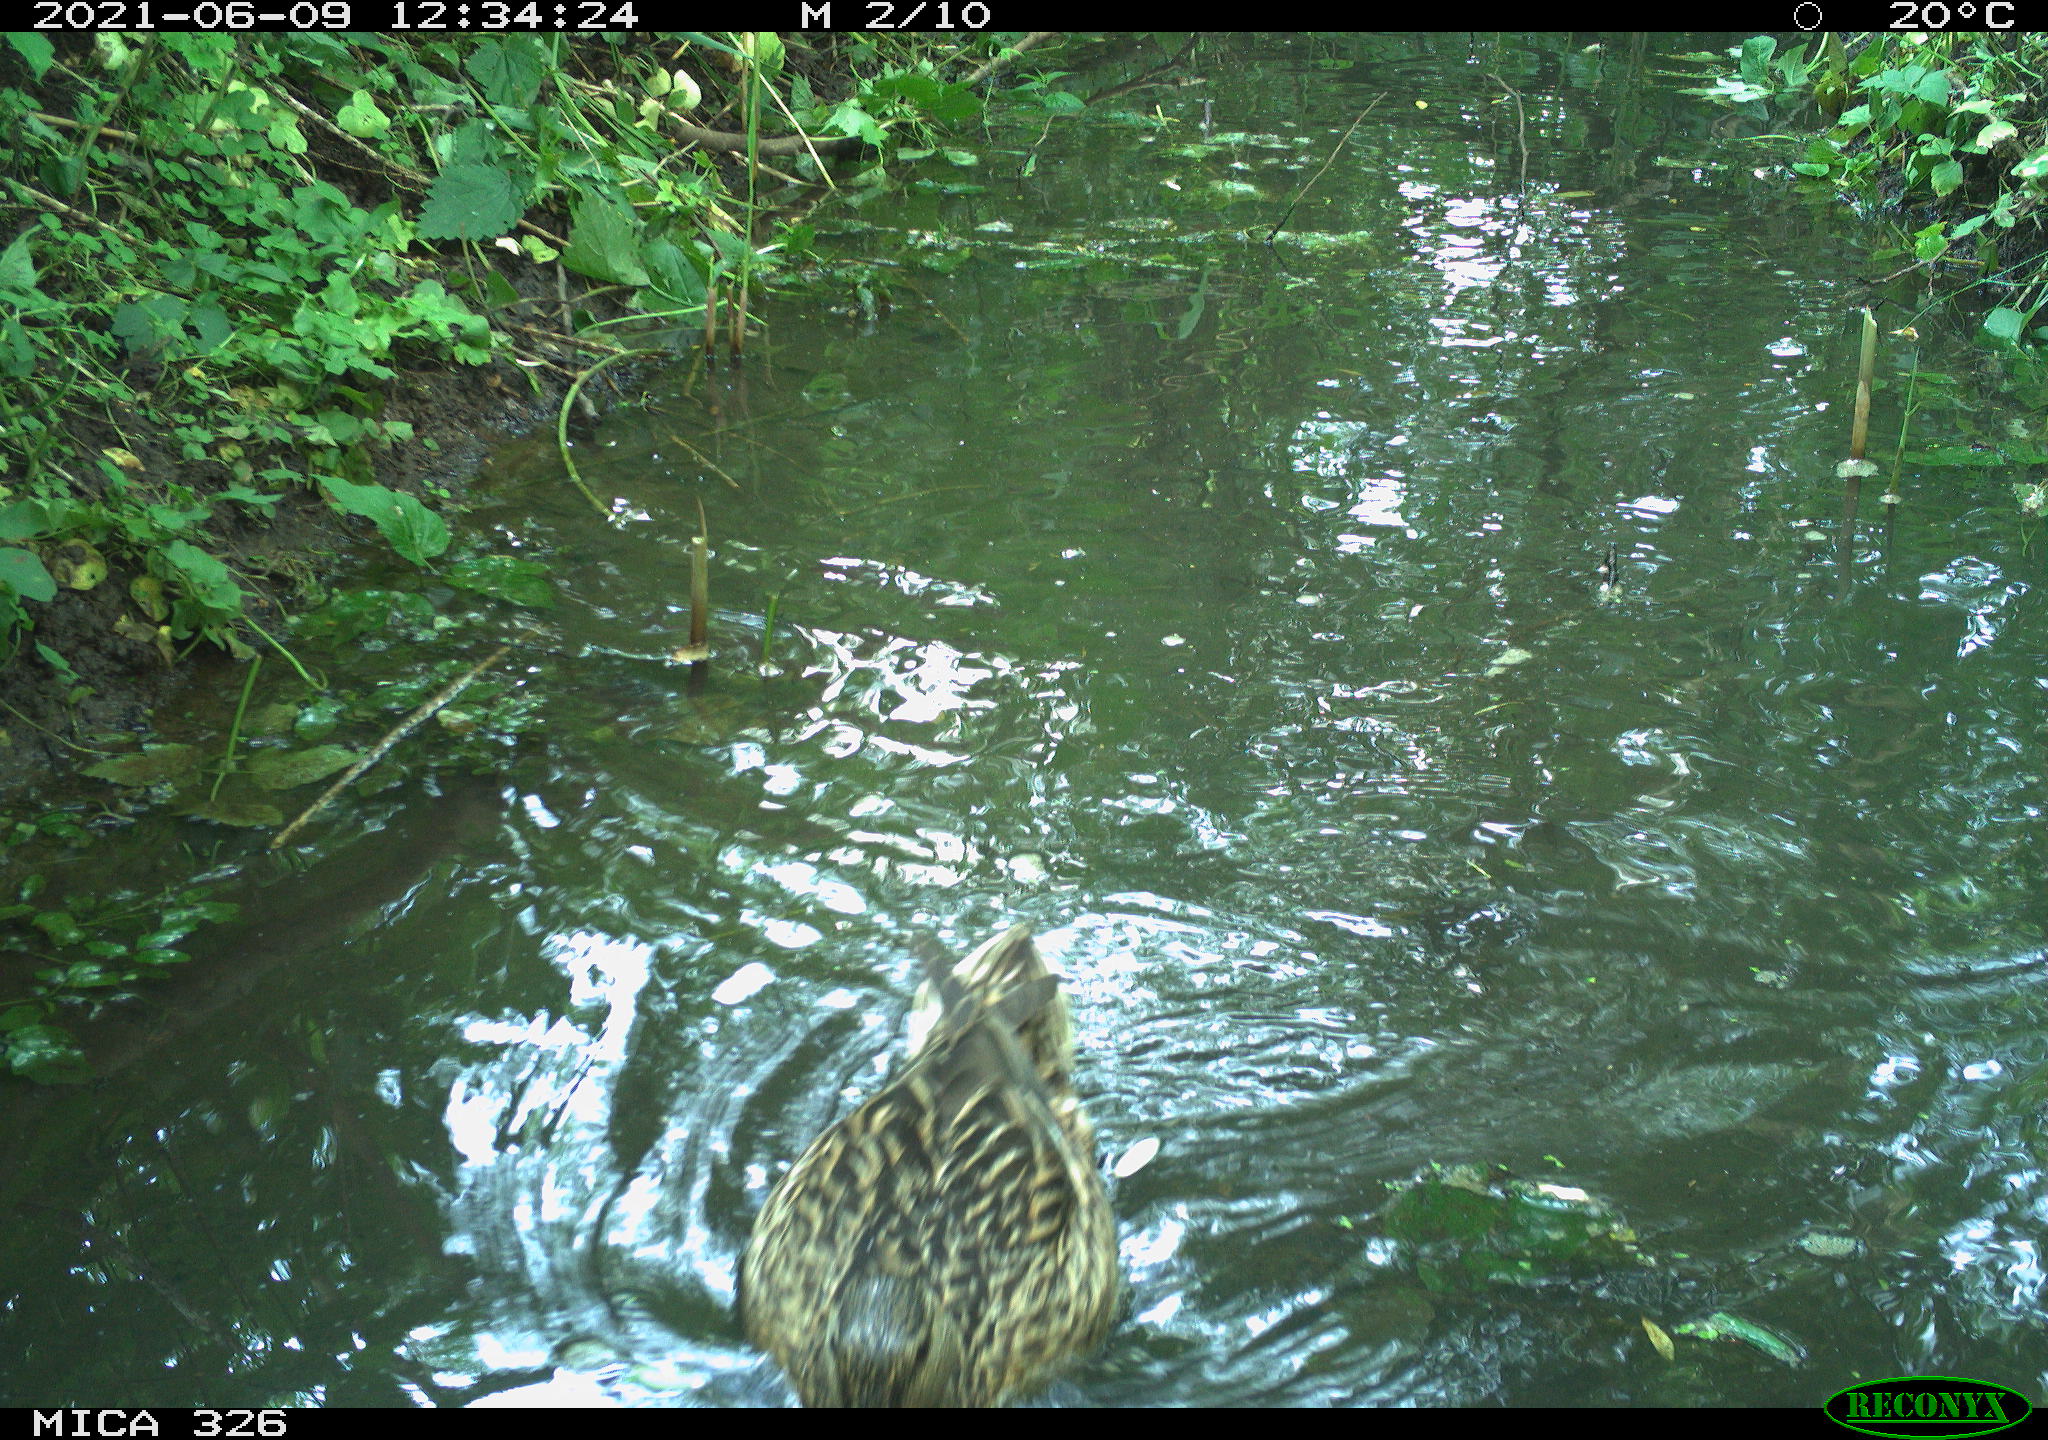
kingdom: Animalia
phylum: Chordata
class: Aves
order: Anseriformes
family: Anatidae
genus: Anas
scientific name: Anas platyrhynchos
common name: Mallard
